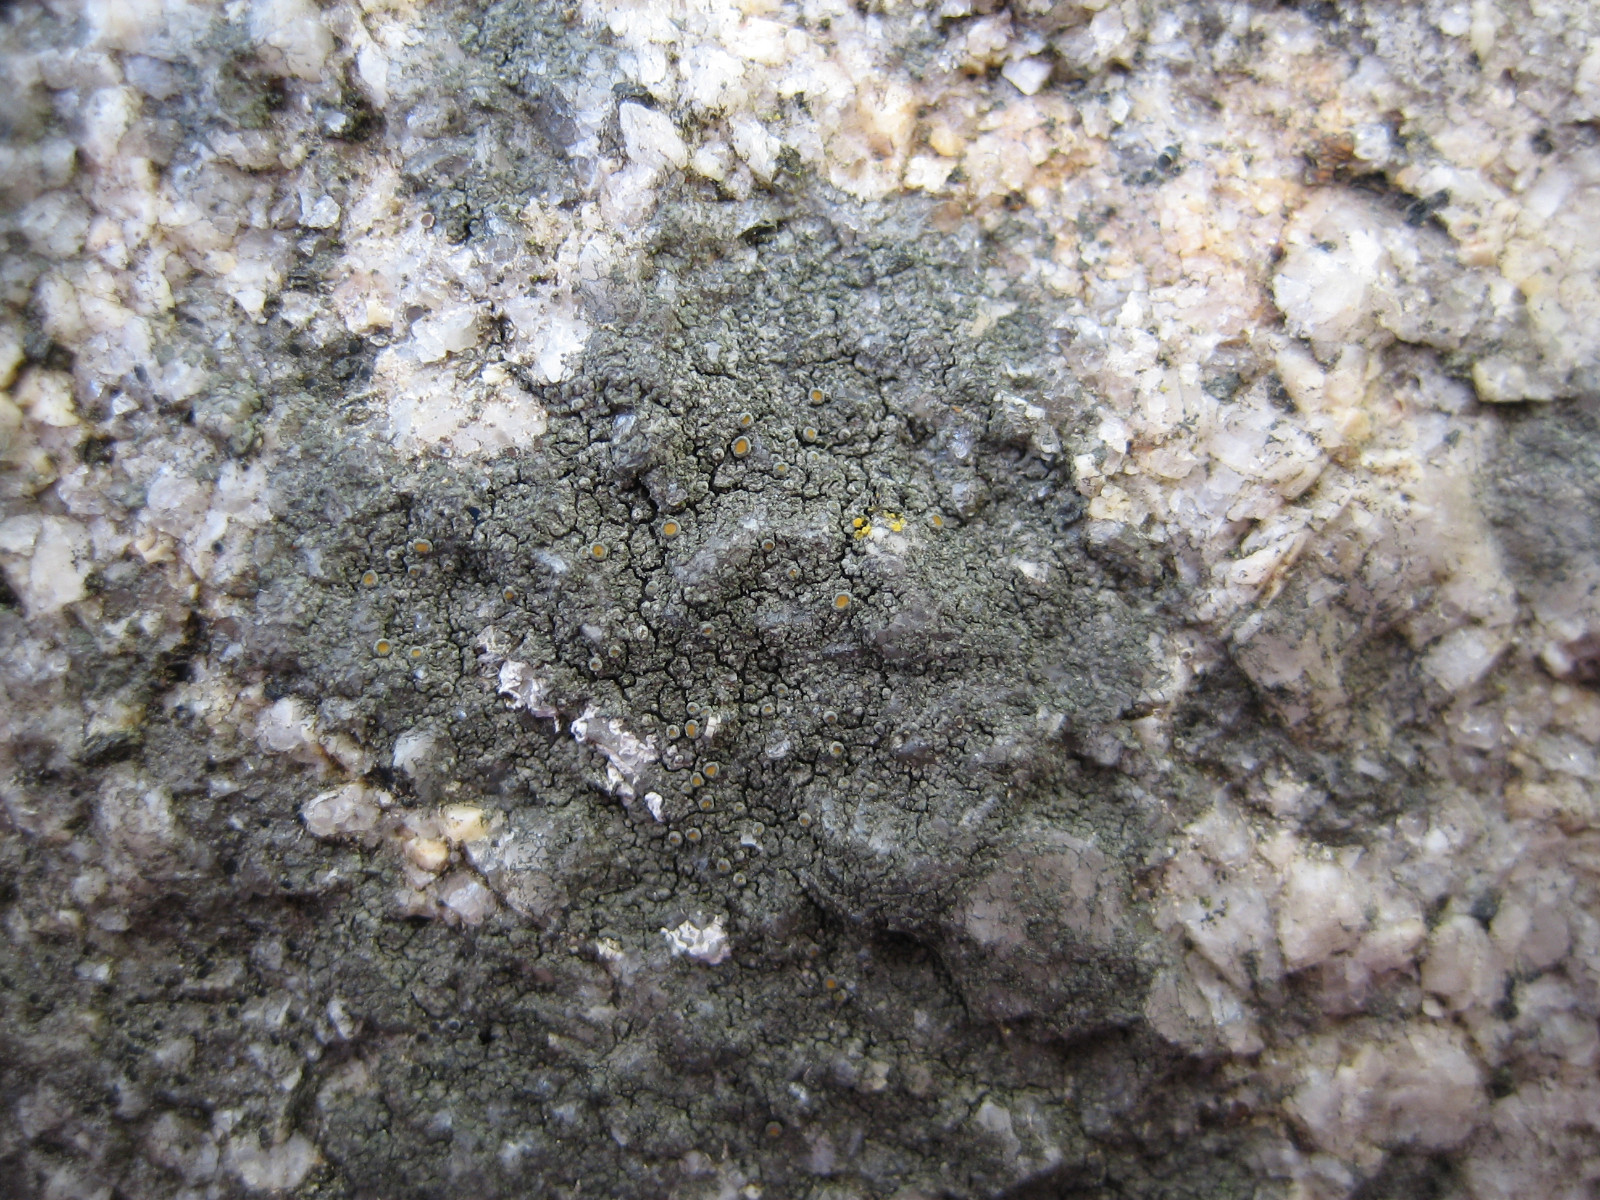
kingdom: Fungi
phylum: Ascomycota
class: Lecanoromycetes
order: Teloschistales
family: Teloschistaceae
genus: Caloplaca
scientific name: Caloplaca chlorina
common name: mørkskællet orangelav
